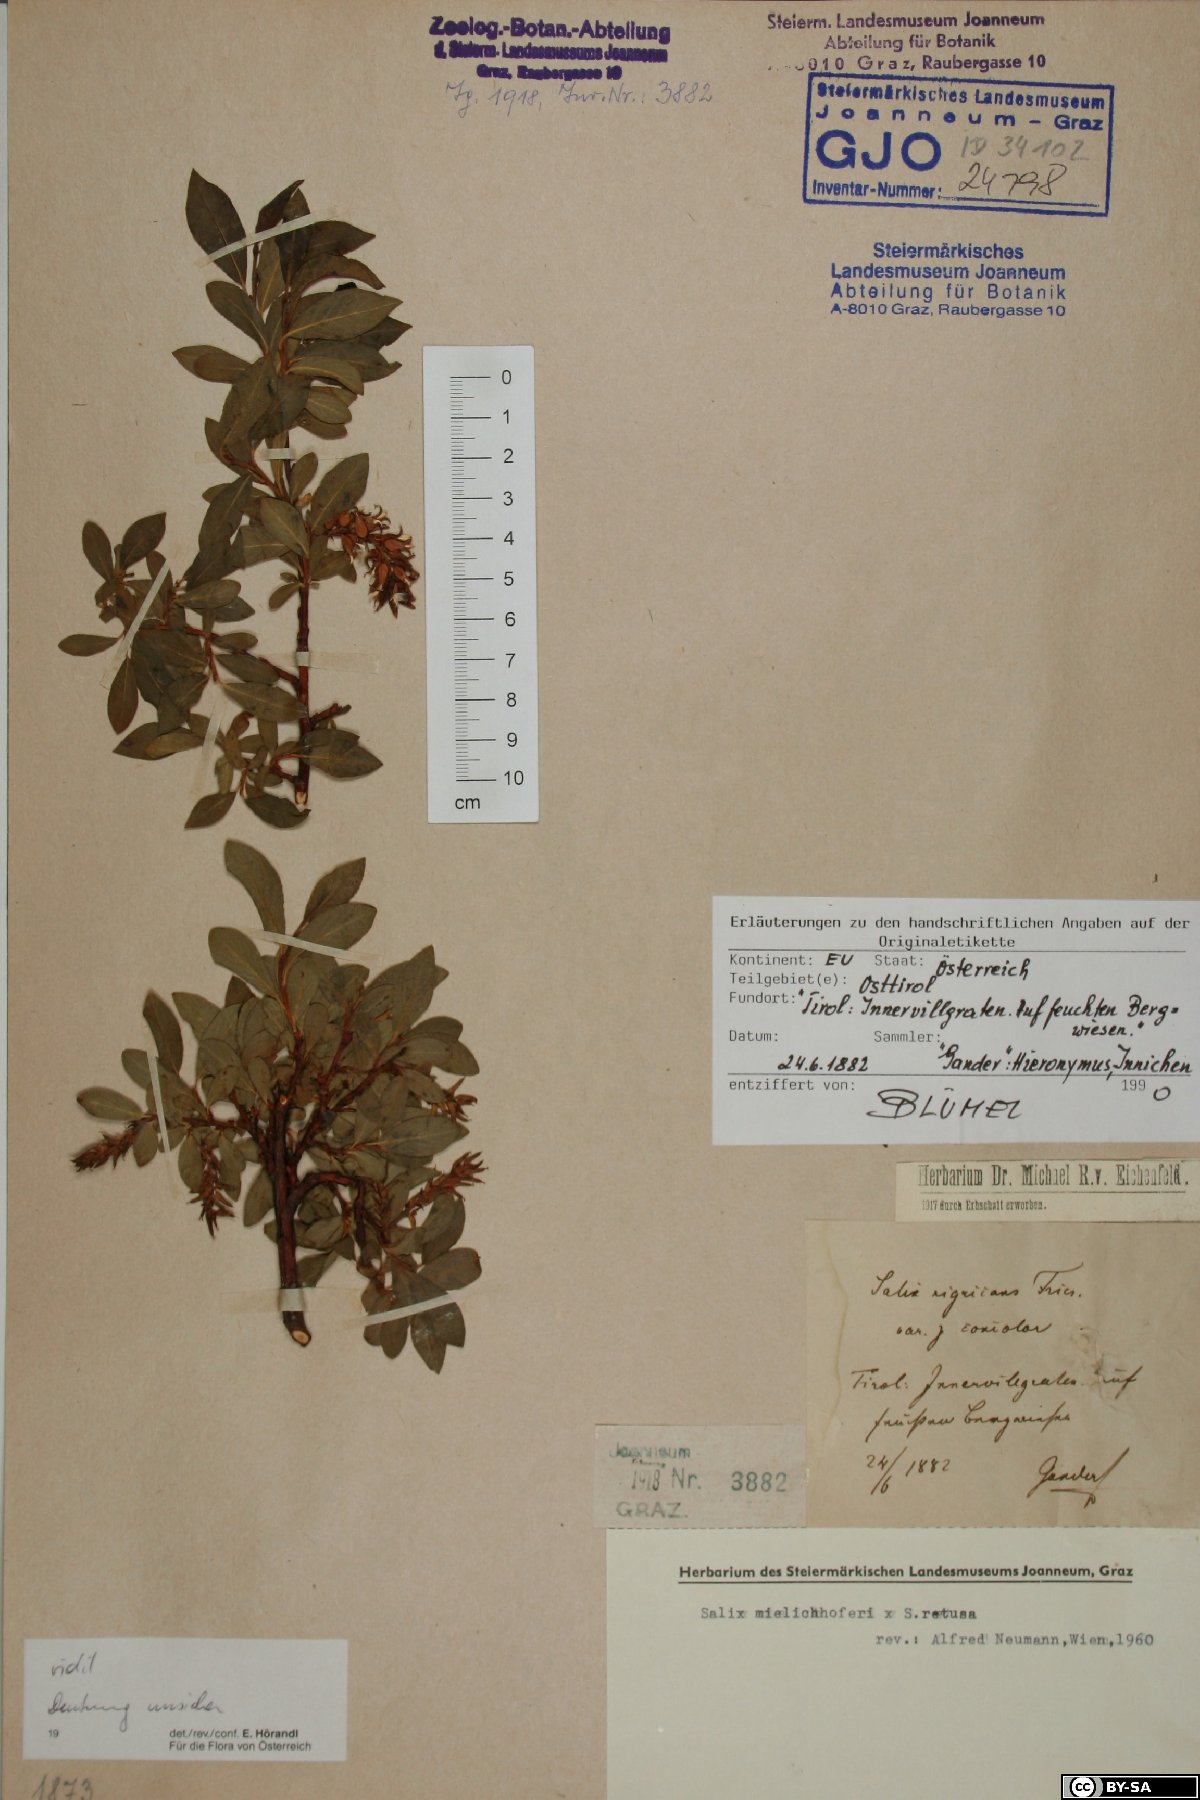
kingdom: Plantae
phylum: Tracheophyta
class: Magnoliopsida
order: Malpighiales
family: Salicaceae
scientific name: Salicaceae
